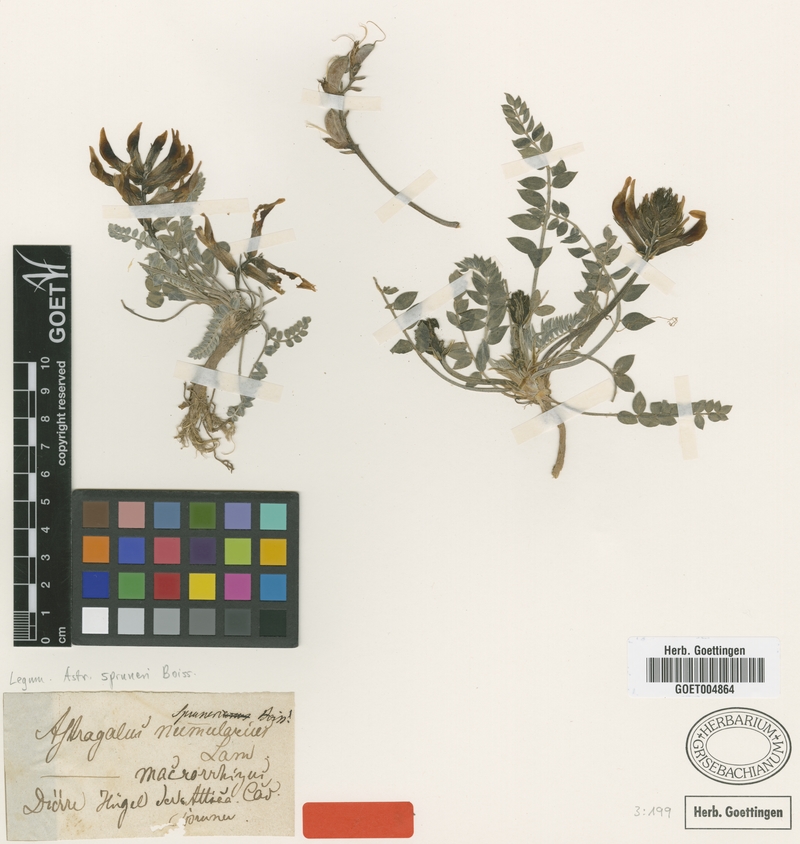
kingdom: Plantae
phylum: Tracheophyta
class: Magnoliopsida
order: Fabales
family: Fabaceae
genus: Astragalus
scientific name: Astragalus spruneri
